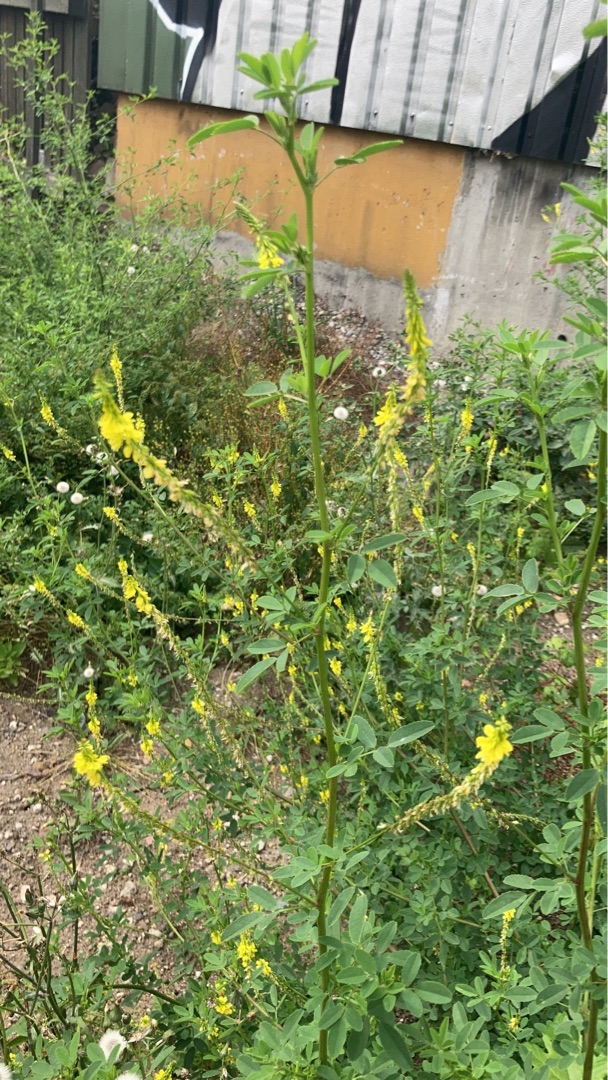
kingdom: Plantae
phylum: Tracheophyta
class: Magnoliopsida
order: Fabales
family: Fabaceae
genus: Melilotus
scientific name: Melilotus
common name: Stenkløverslægten
